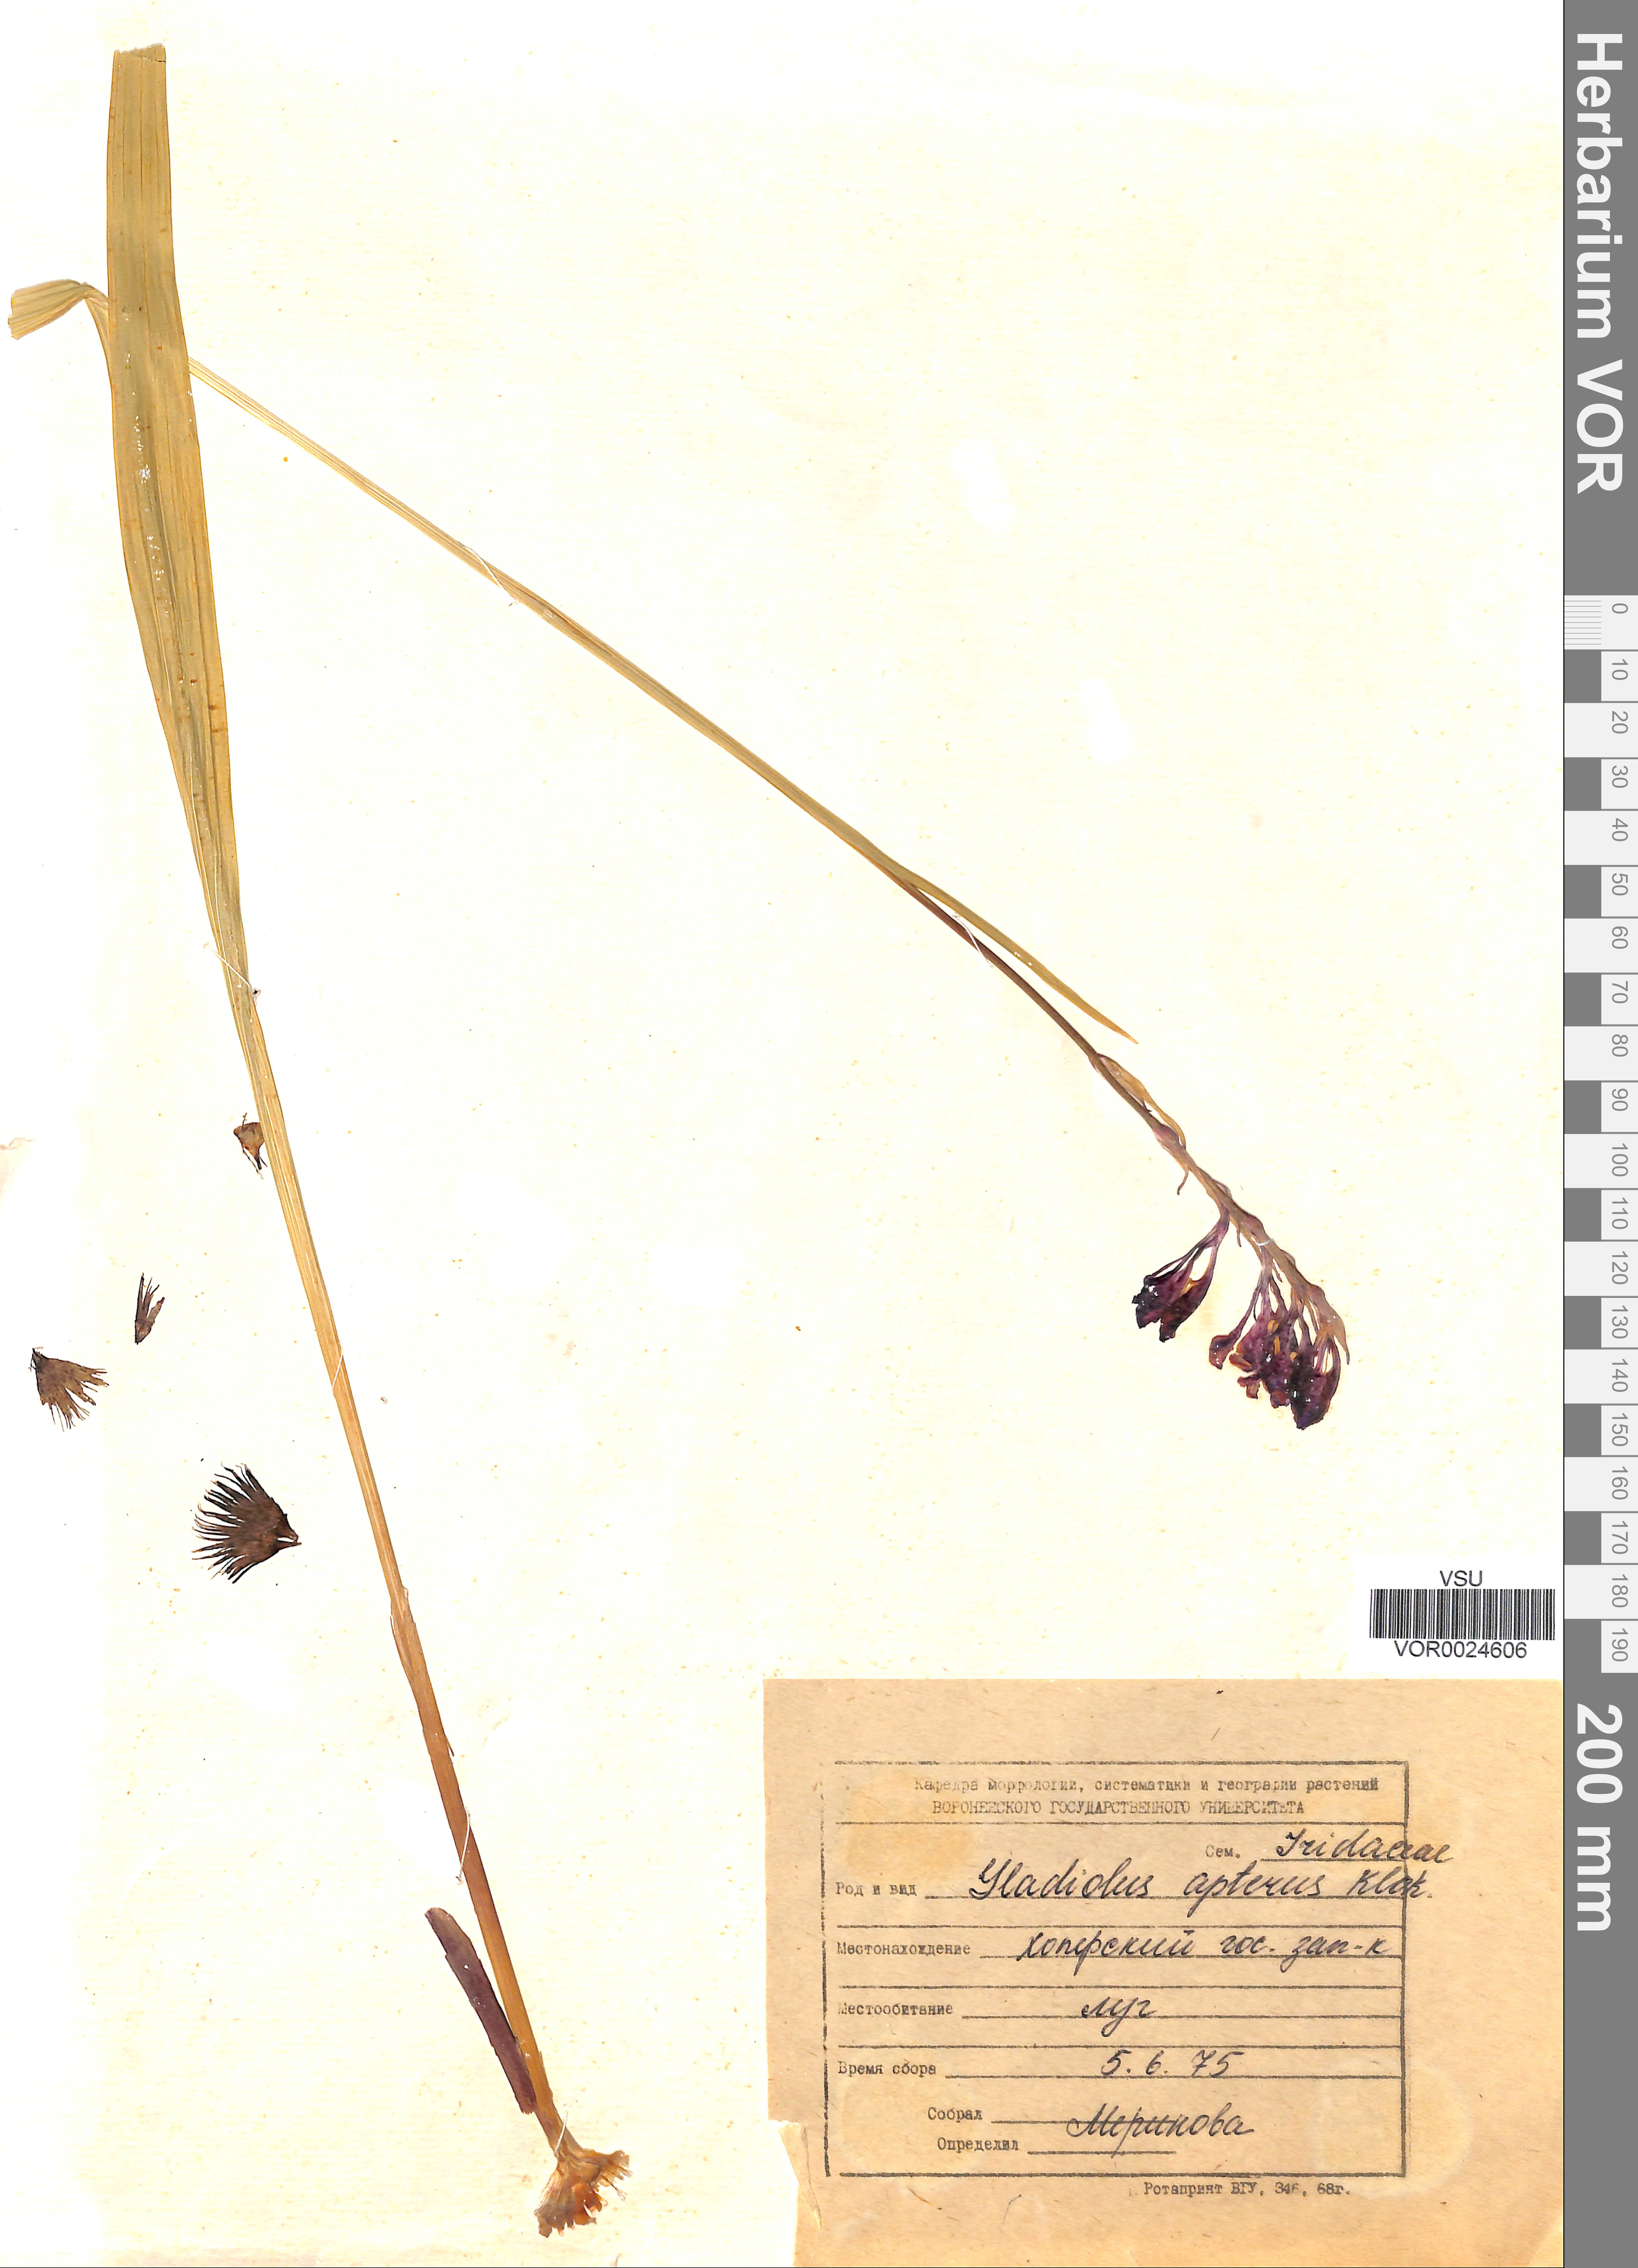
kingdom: Plantae
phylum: Tracheophyta
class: Liliopsida
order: Asparagales
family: Iridaceae
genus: Gladiolus
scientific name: Gladiolus tenuis
